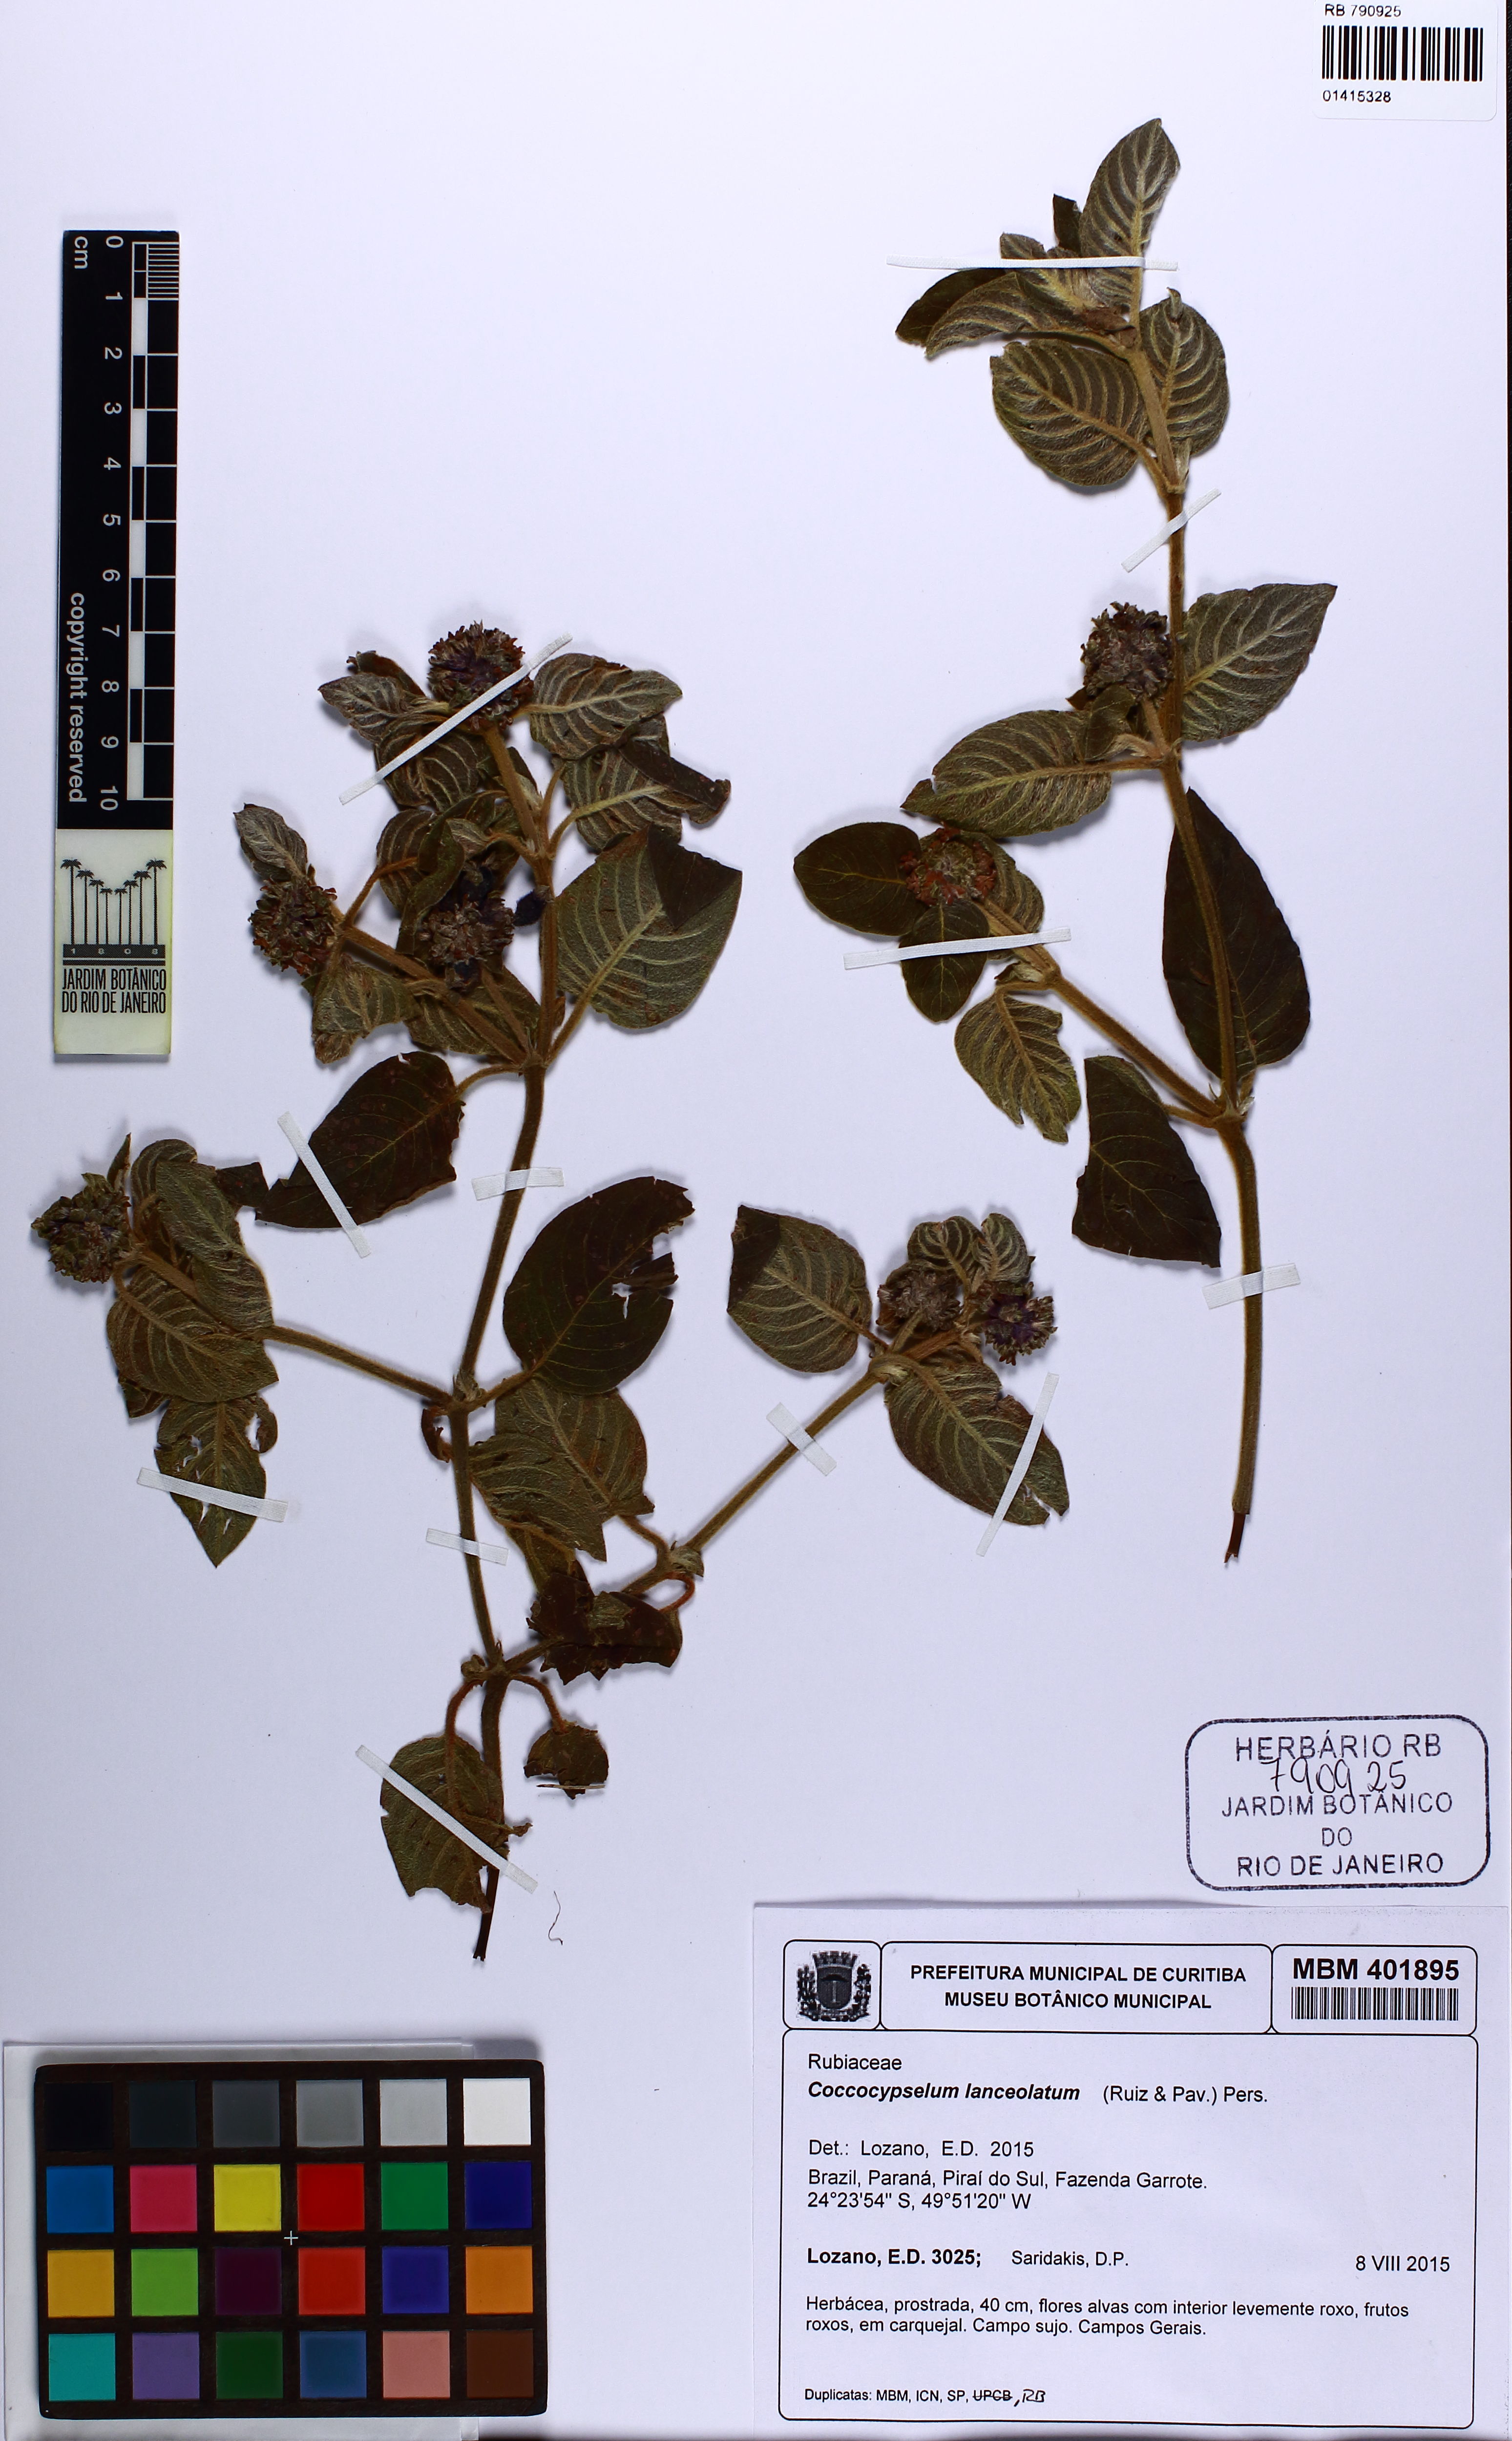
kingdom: Plantae
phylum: Tracheophyta
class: Magnoliopsida
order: Gentianales
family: Rubiaceae
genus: Coccocypselum
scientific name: Coccocypselum lanceolatum
